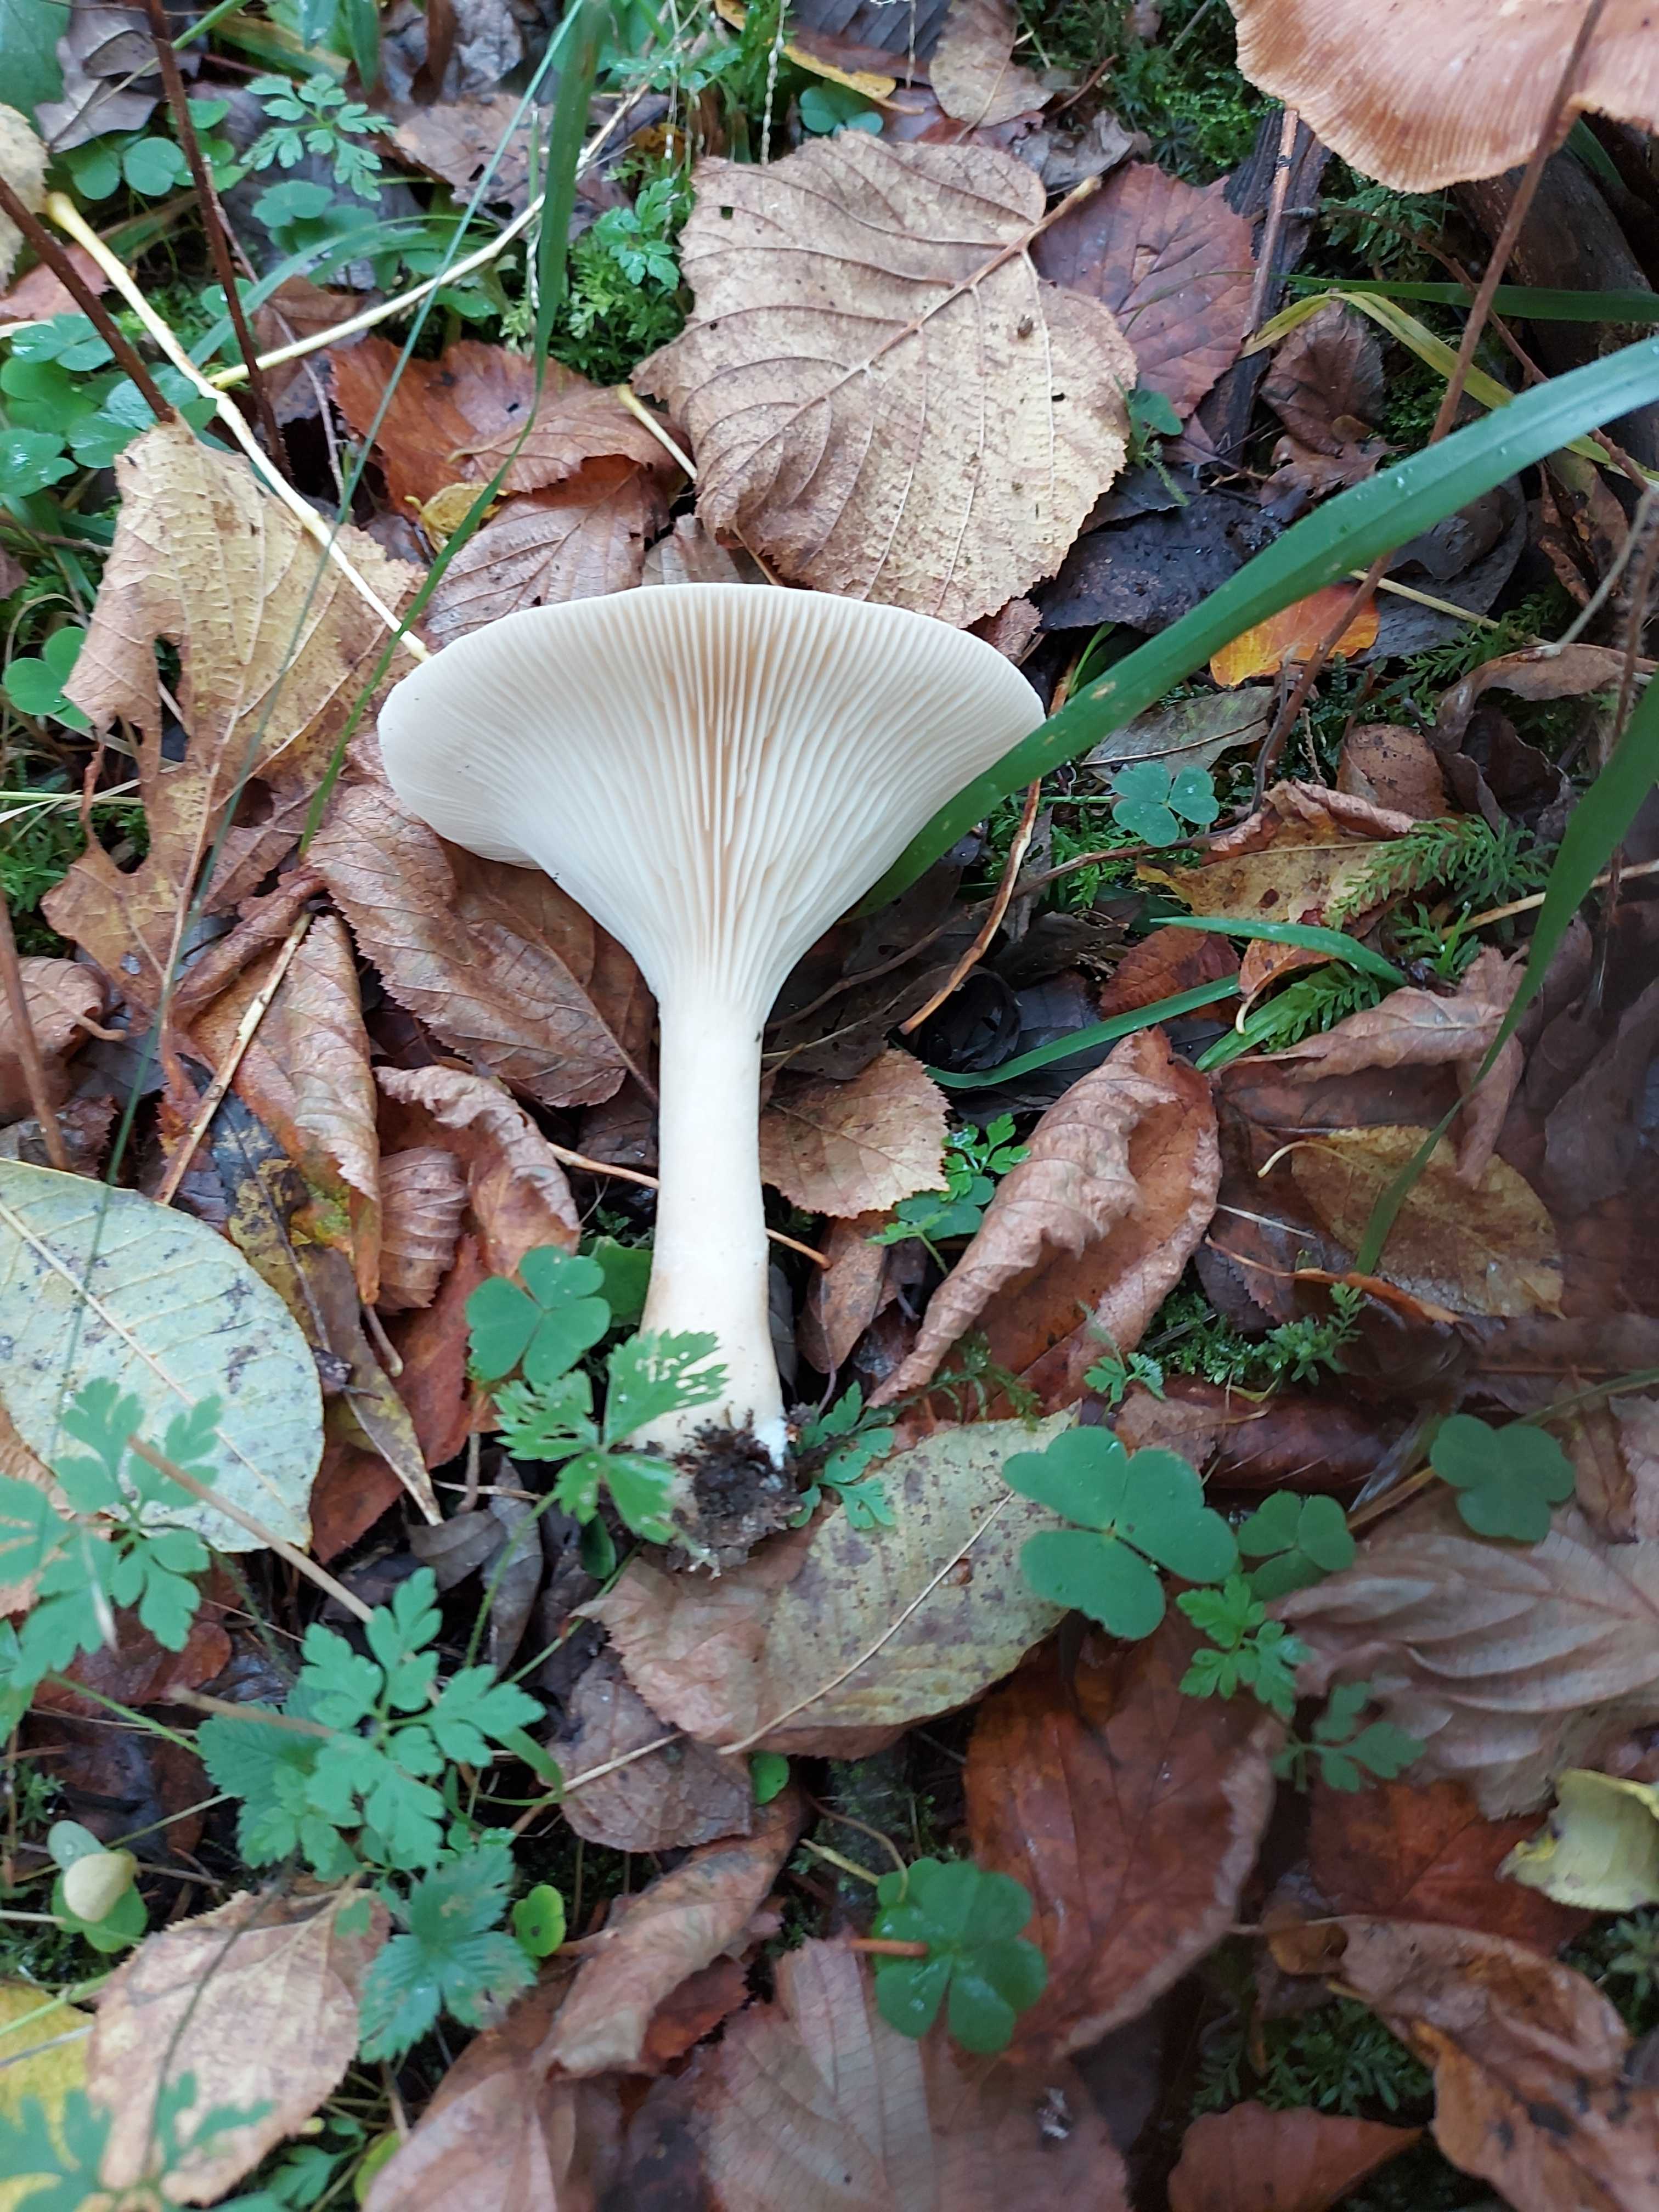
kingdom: Fungi
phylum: Basidiomycota
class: Agaricomycetes
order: Agaricales
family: Tricholomataceae
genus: Infundibulicybe
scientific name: Infundibulicybe geotropa
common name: stor tragthat
